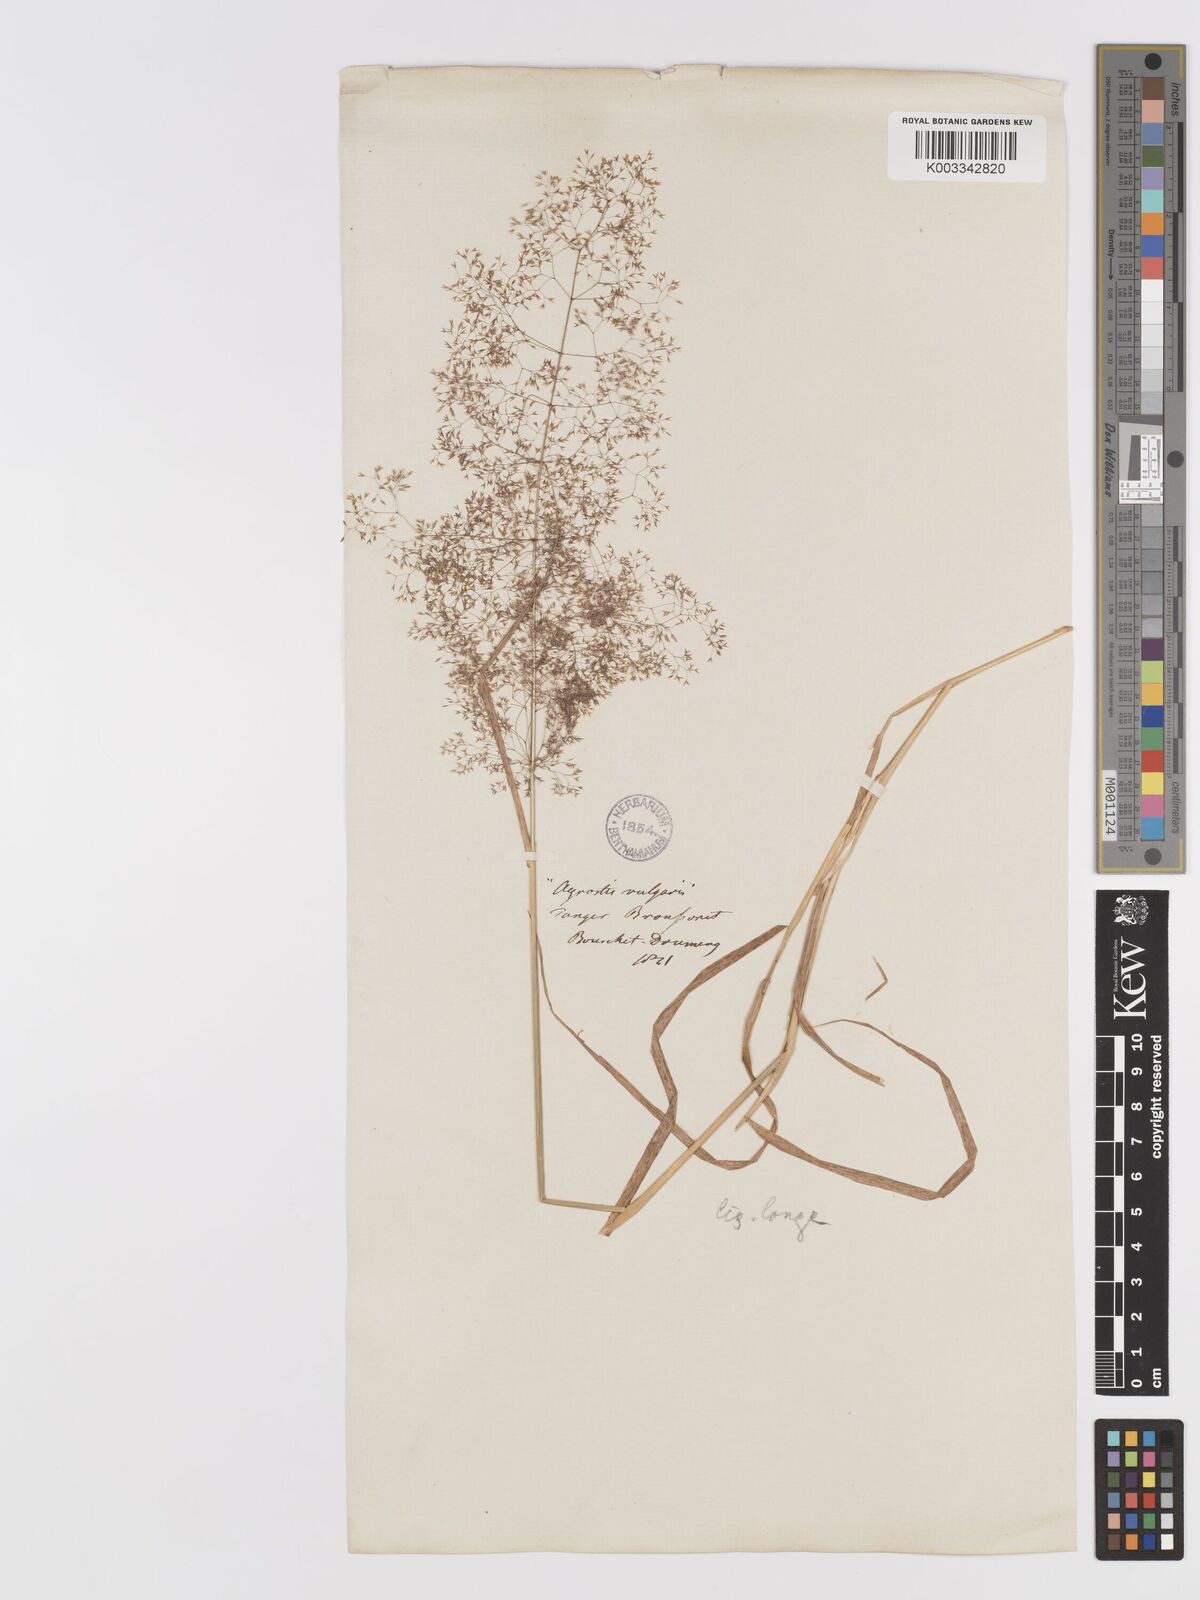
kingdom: Plantae
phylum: Tracheophyta
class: Liliopsida
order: Poales
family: Poaceae
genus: Agrostis
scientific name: Agrostis reuteri
